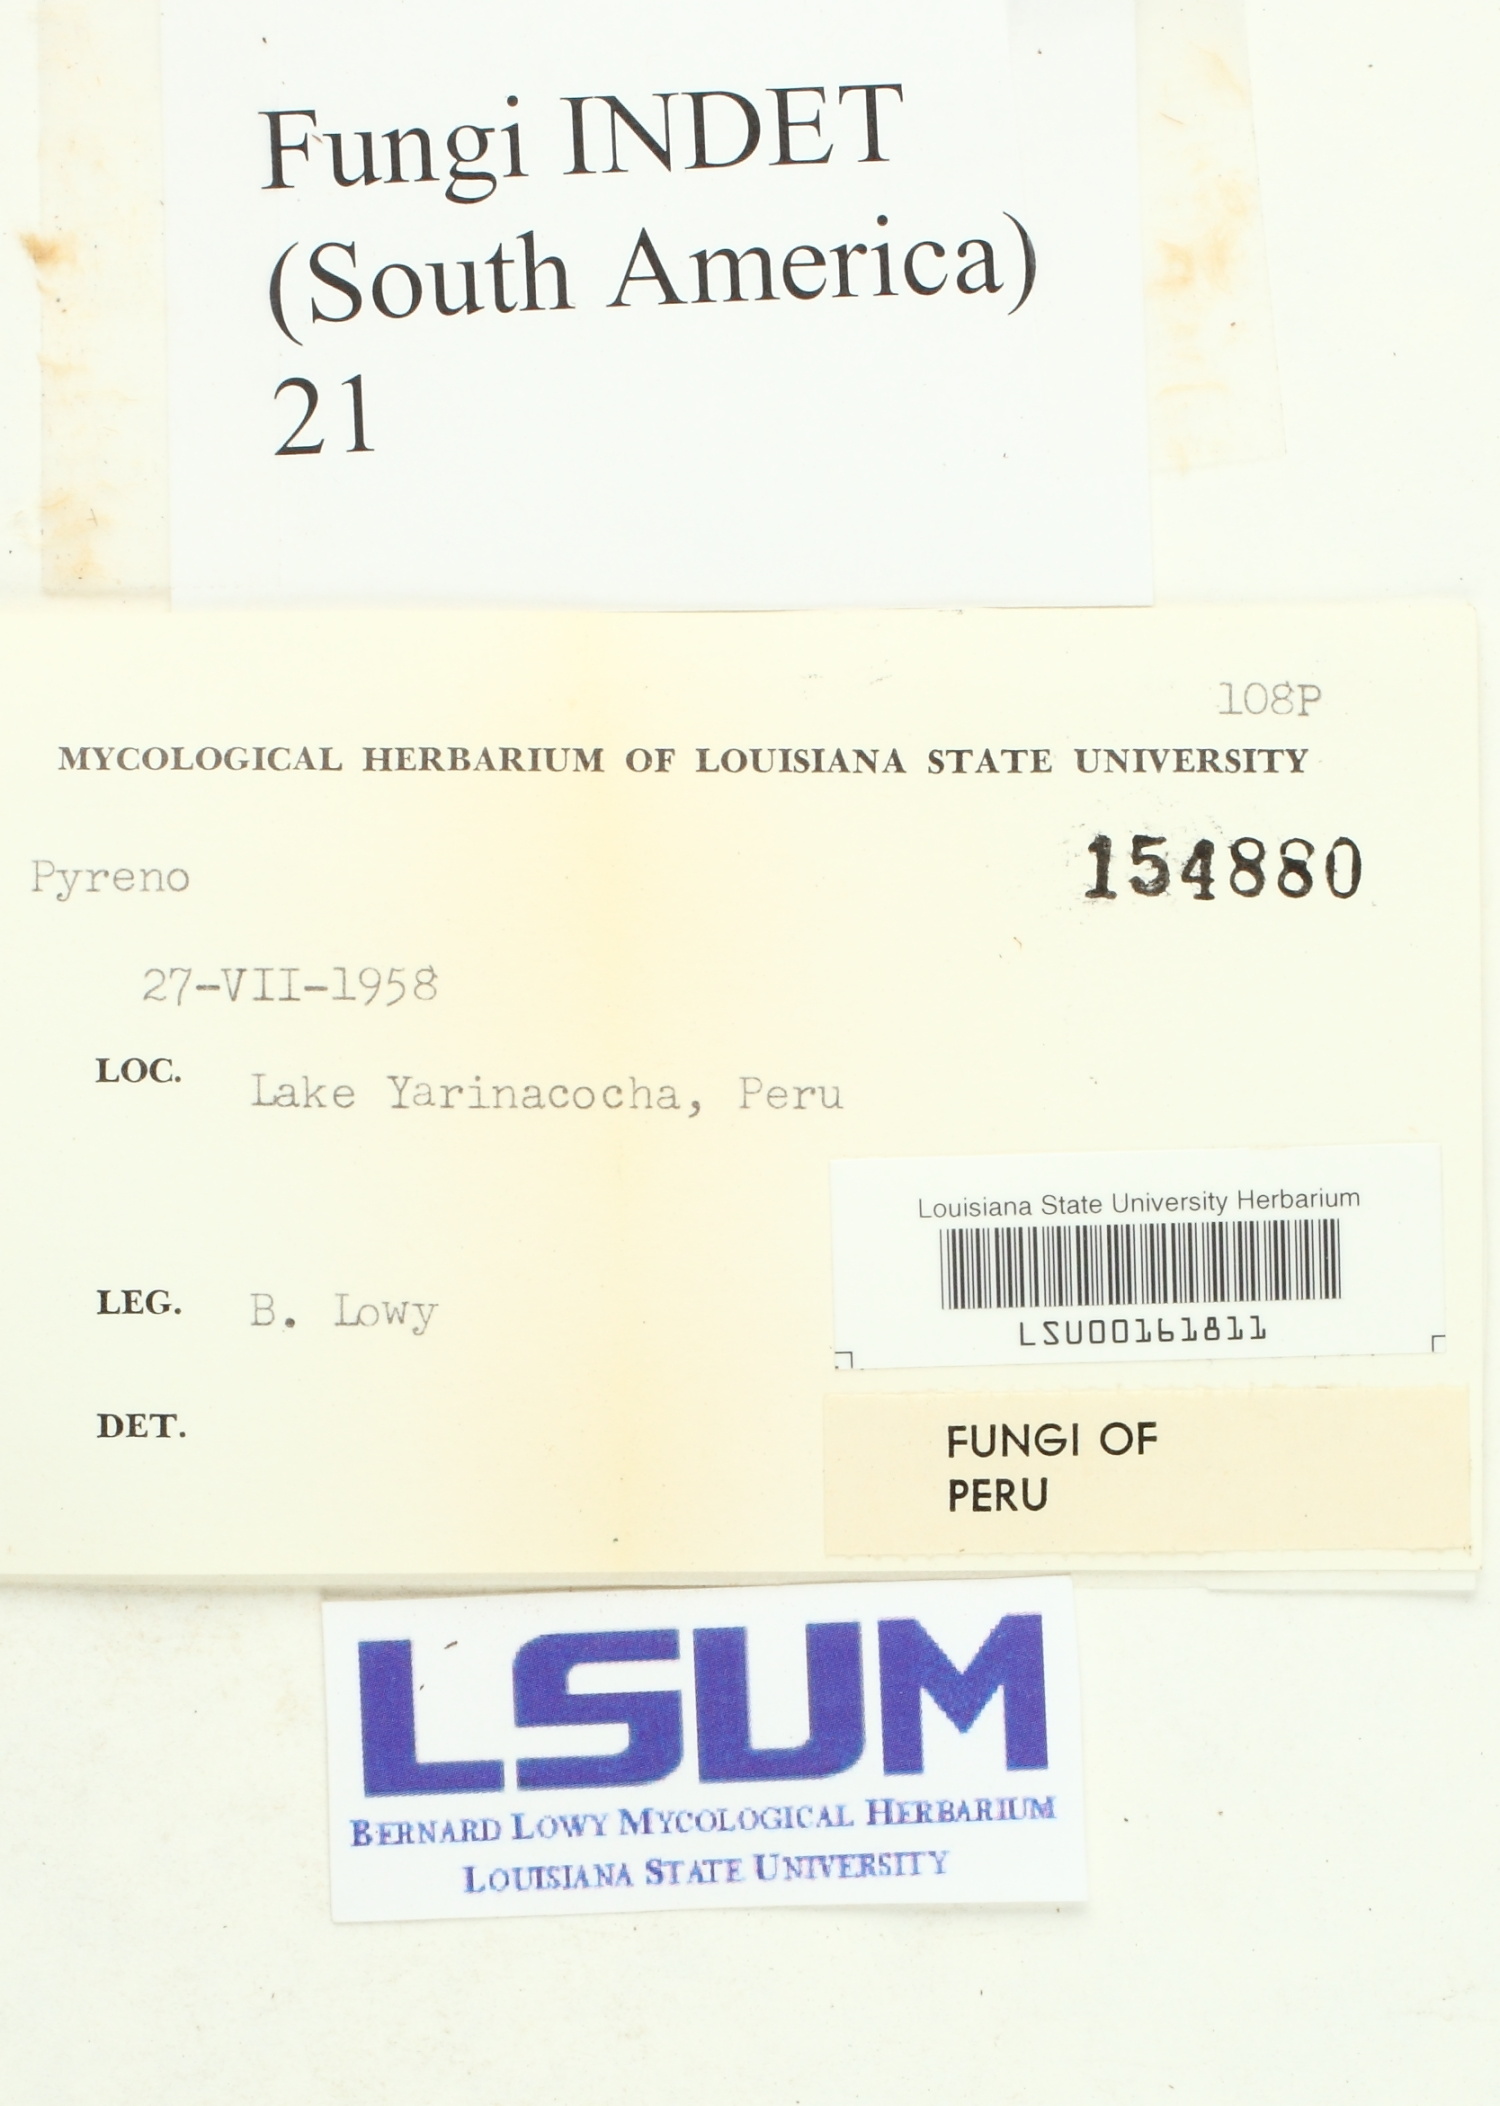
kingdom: Fungi
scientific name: Fungi
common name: Fungi
